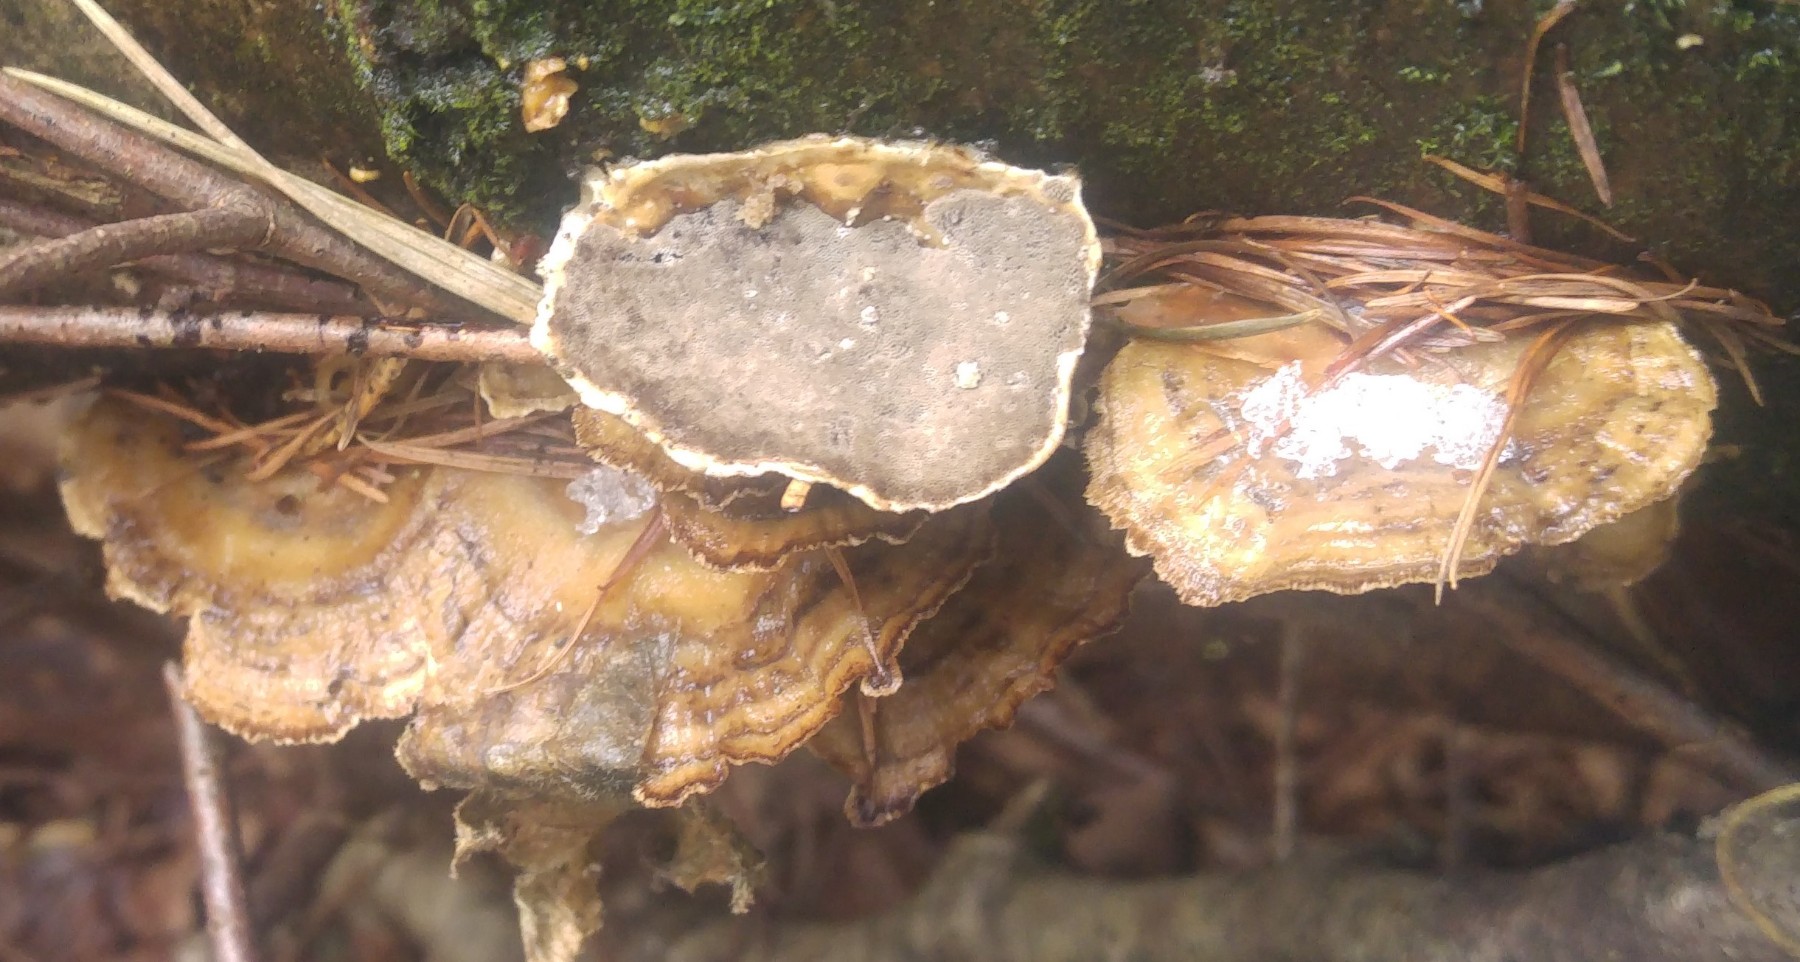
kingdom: Fungi
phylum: Basidiomycota
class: Agaricomycetes
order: Polyporales
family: Phanerochaetaceae
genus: Bjerkandera
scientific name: Bjerkandera adusta
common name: sveden sodporesvamp
